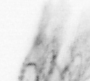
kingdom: Animalia
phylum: Arthropoda
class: Copepoda
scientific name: Copepoda
